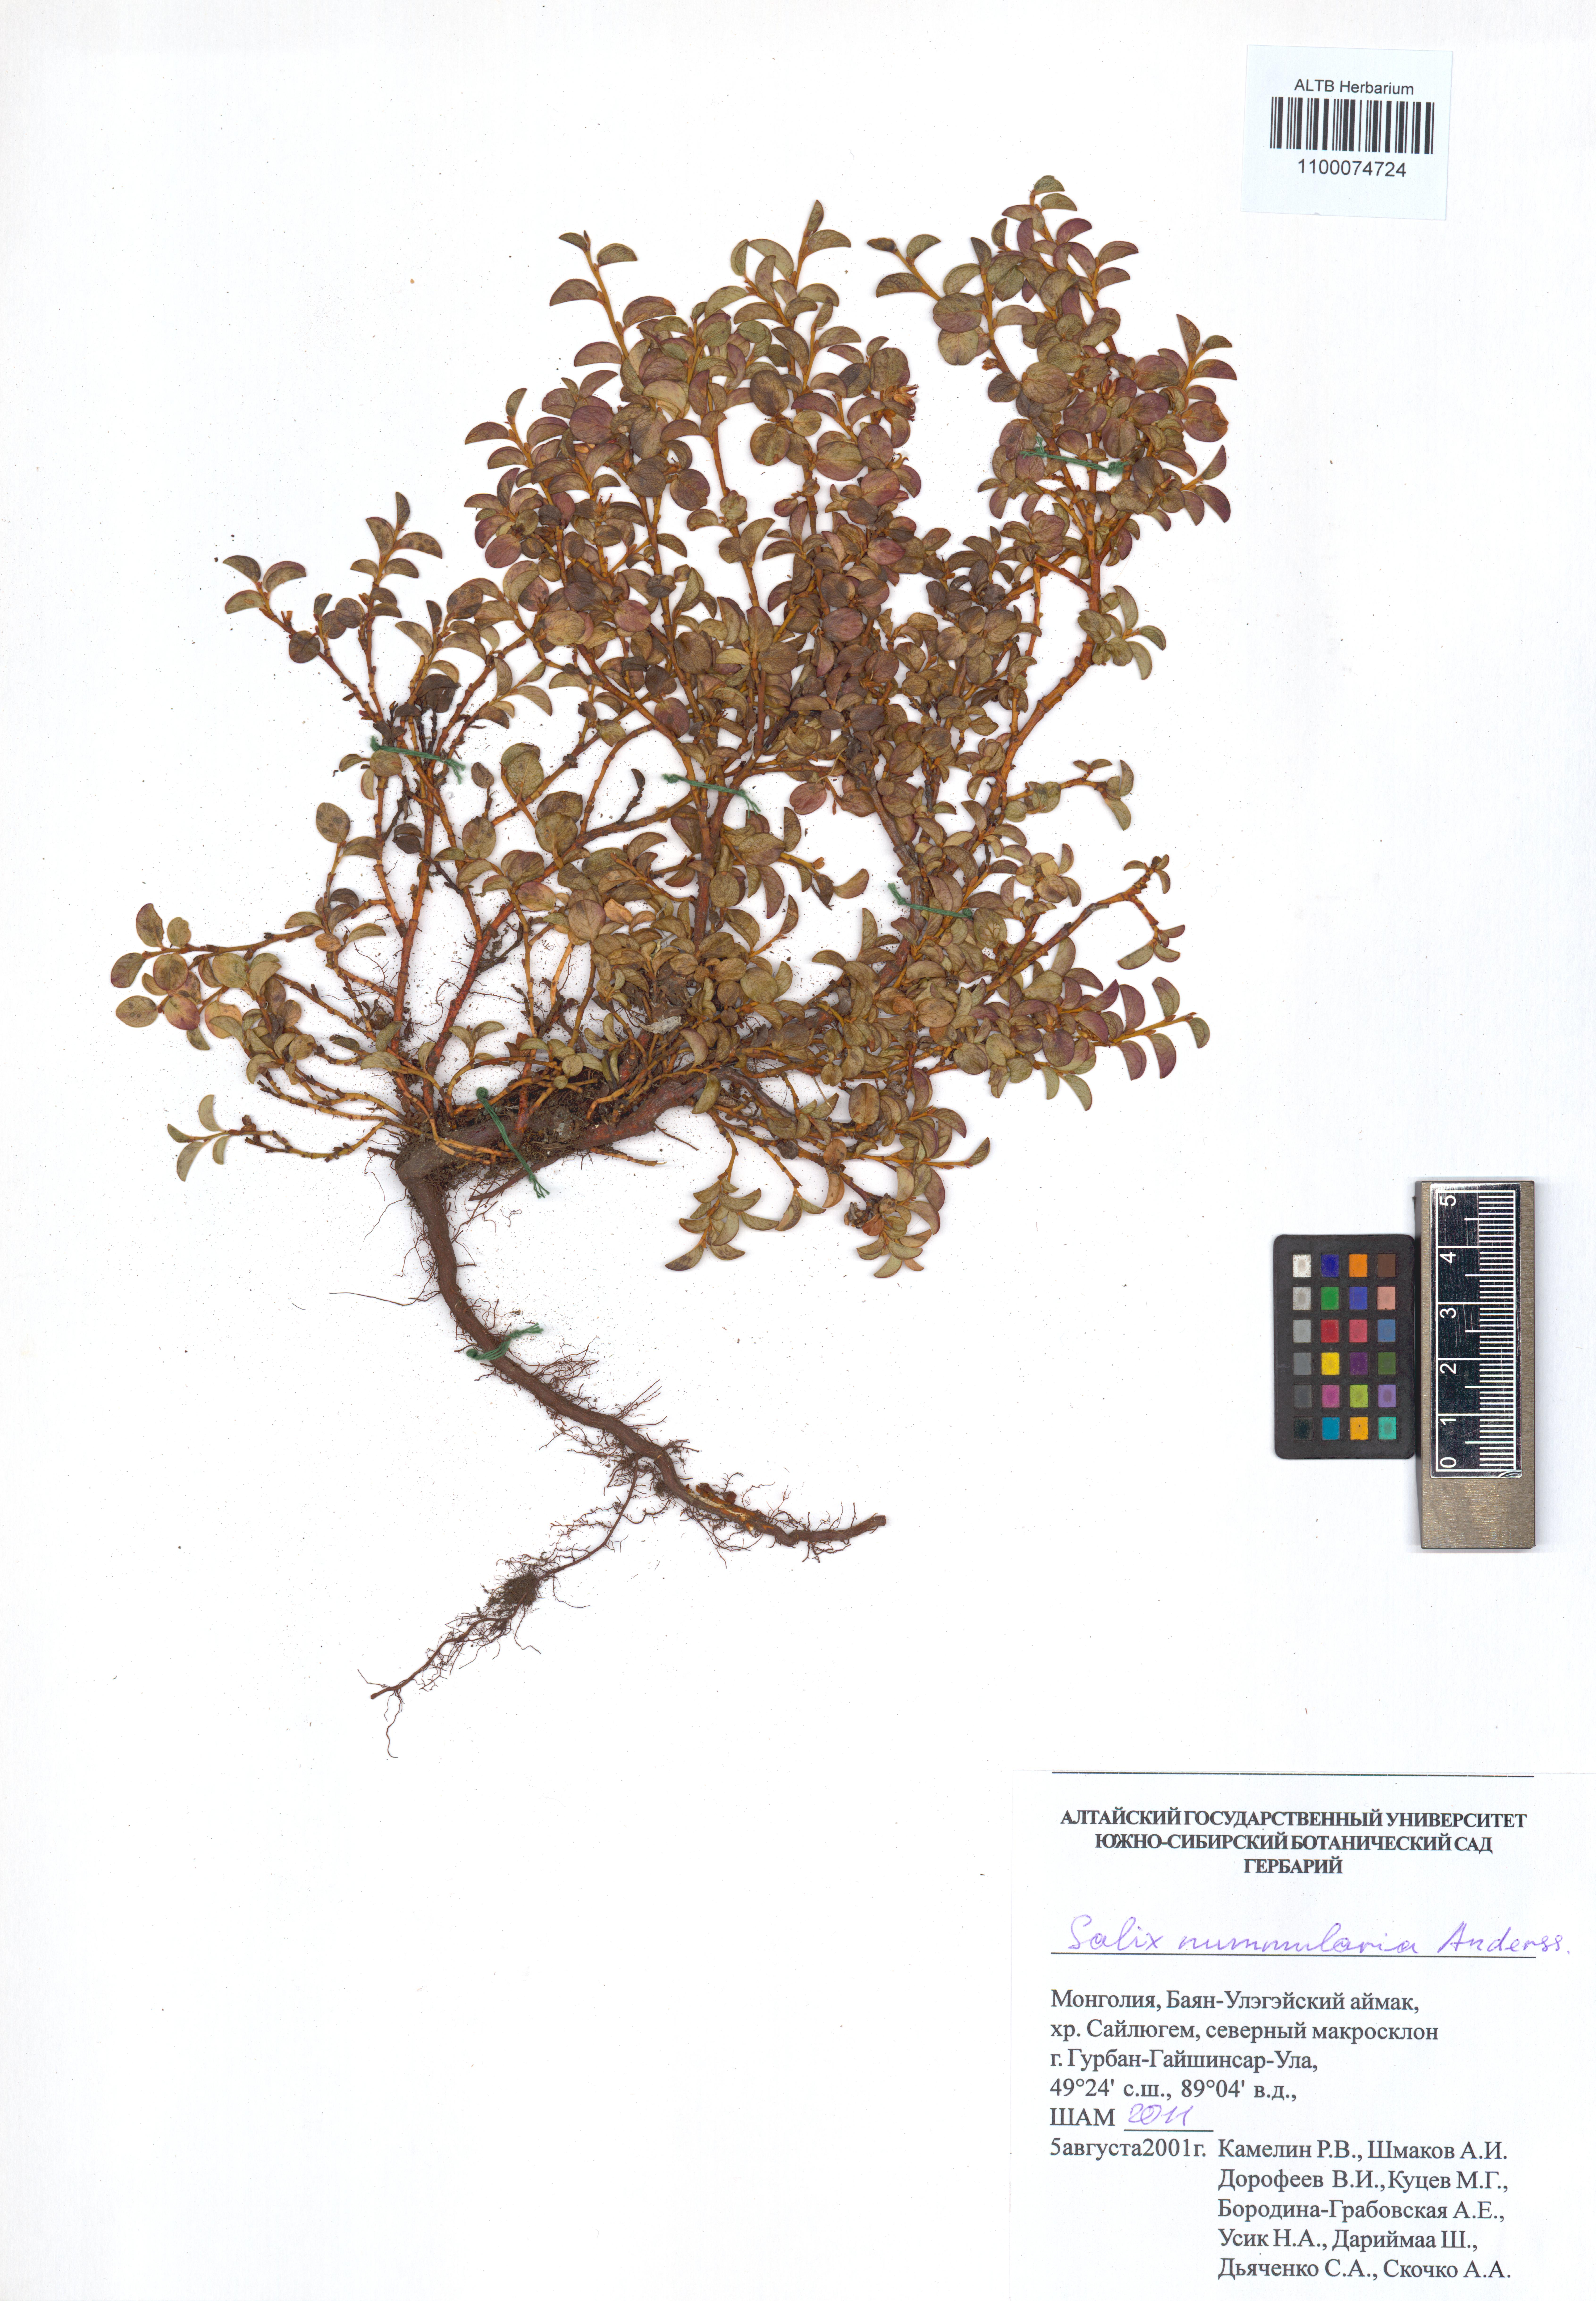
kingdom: Plantae
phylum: Tracheophyta
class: Magnoliopsida
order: Malpighiales
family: Salicaceae
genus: Salix
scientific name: Salix nummularia
